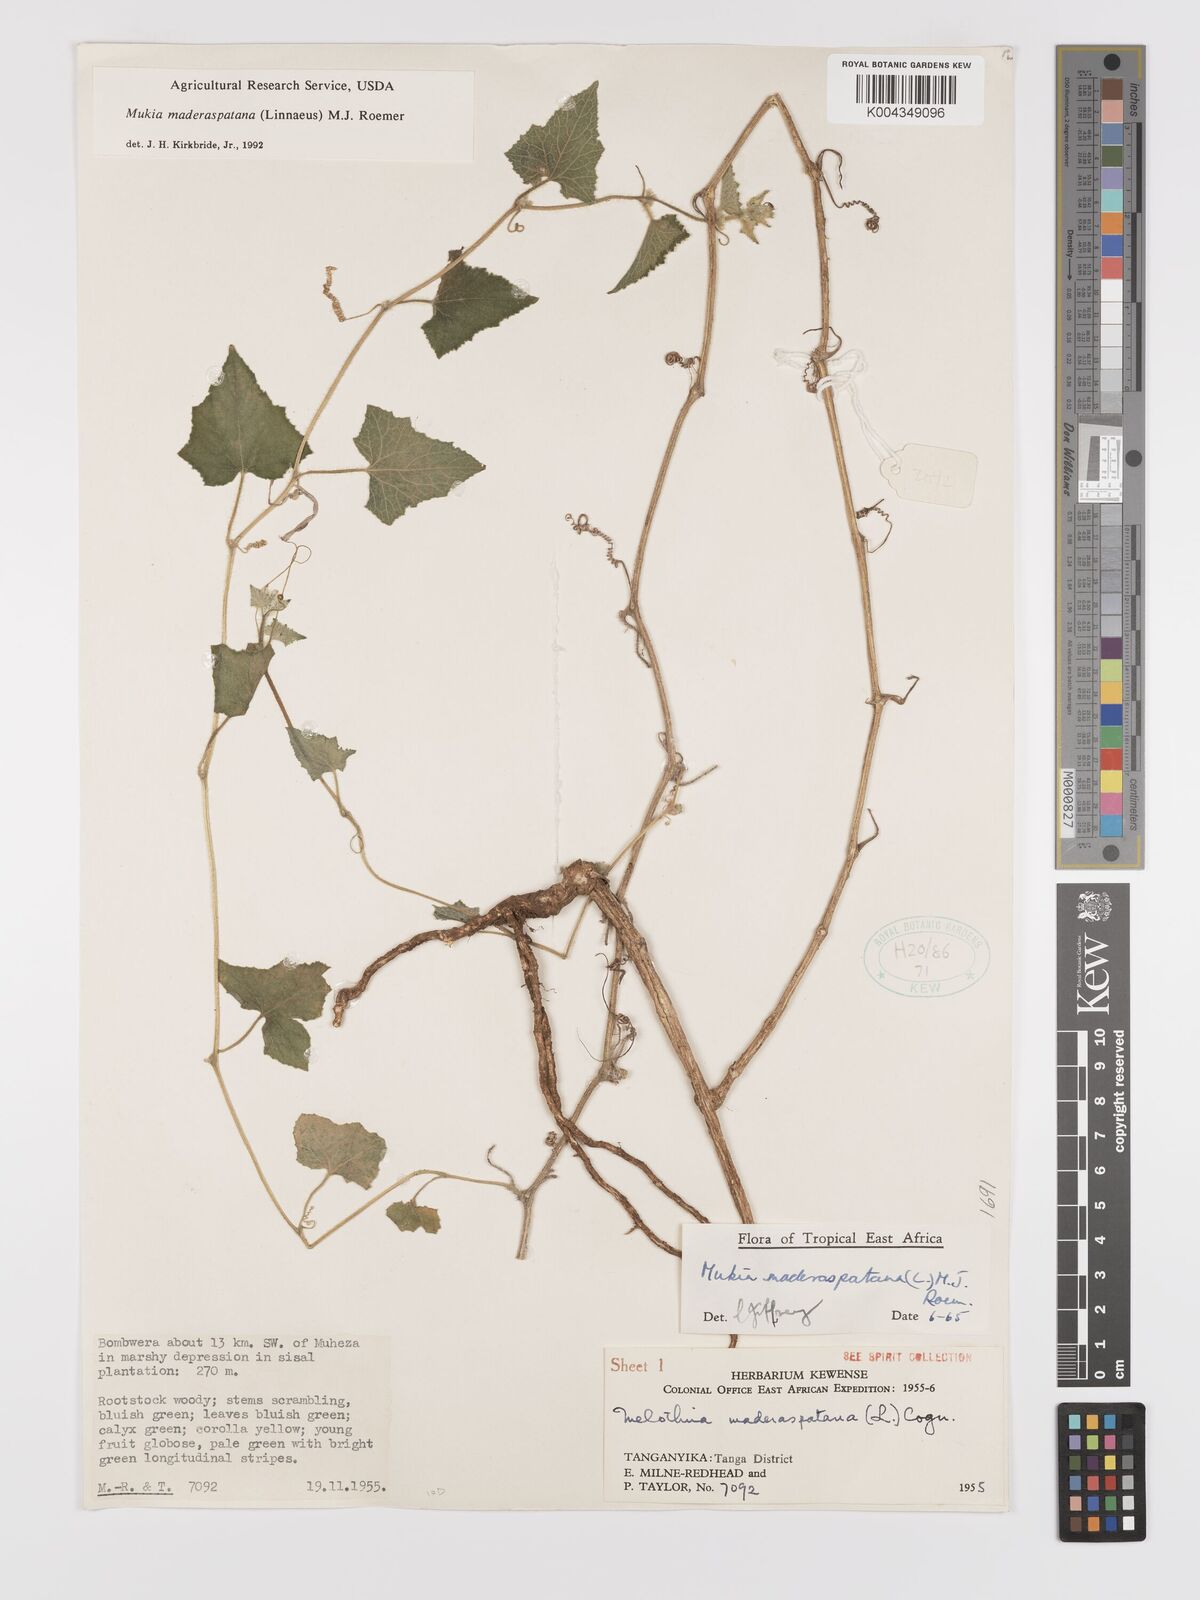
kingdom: Plantae
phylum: Tracheophyta
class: Magnoliopsida
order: Cucurbitales
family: Cucurbitaceae
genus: Cucumis
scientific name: Cucumis maderaspatanus
